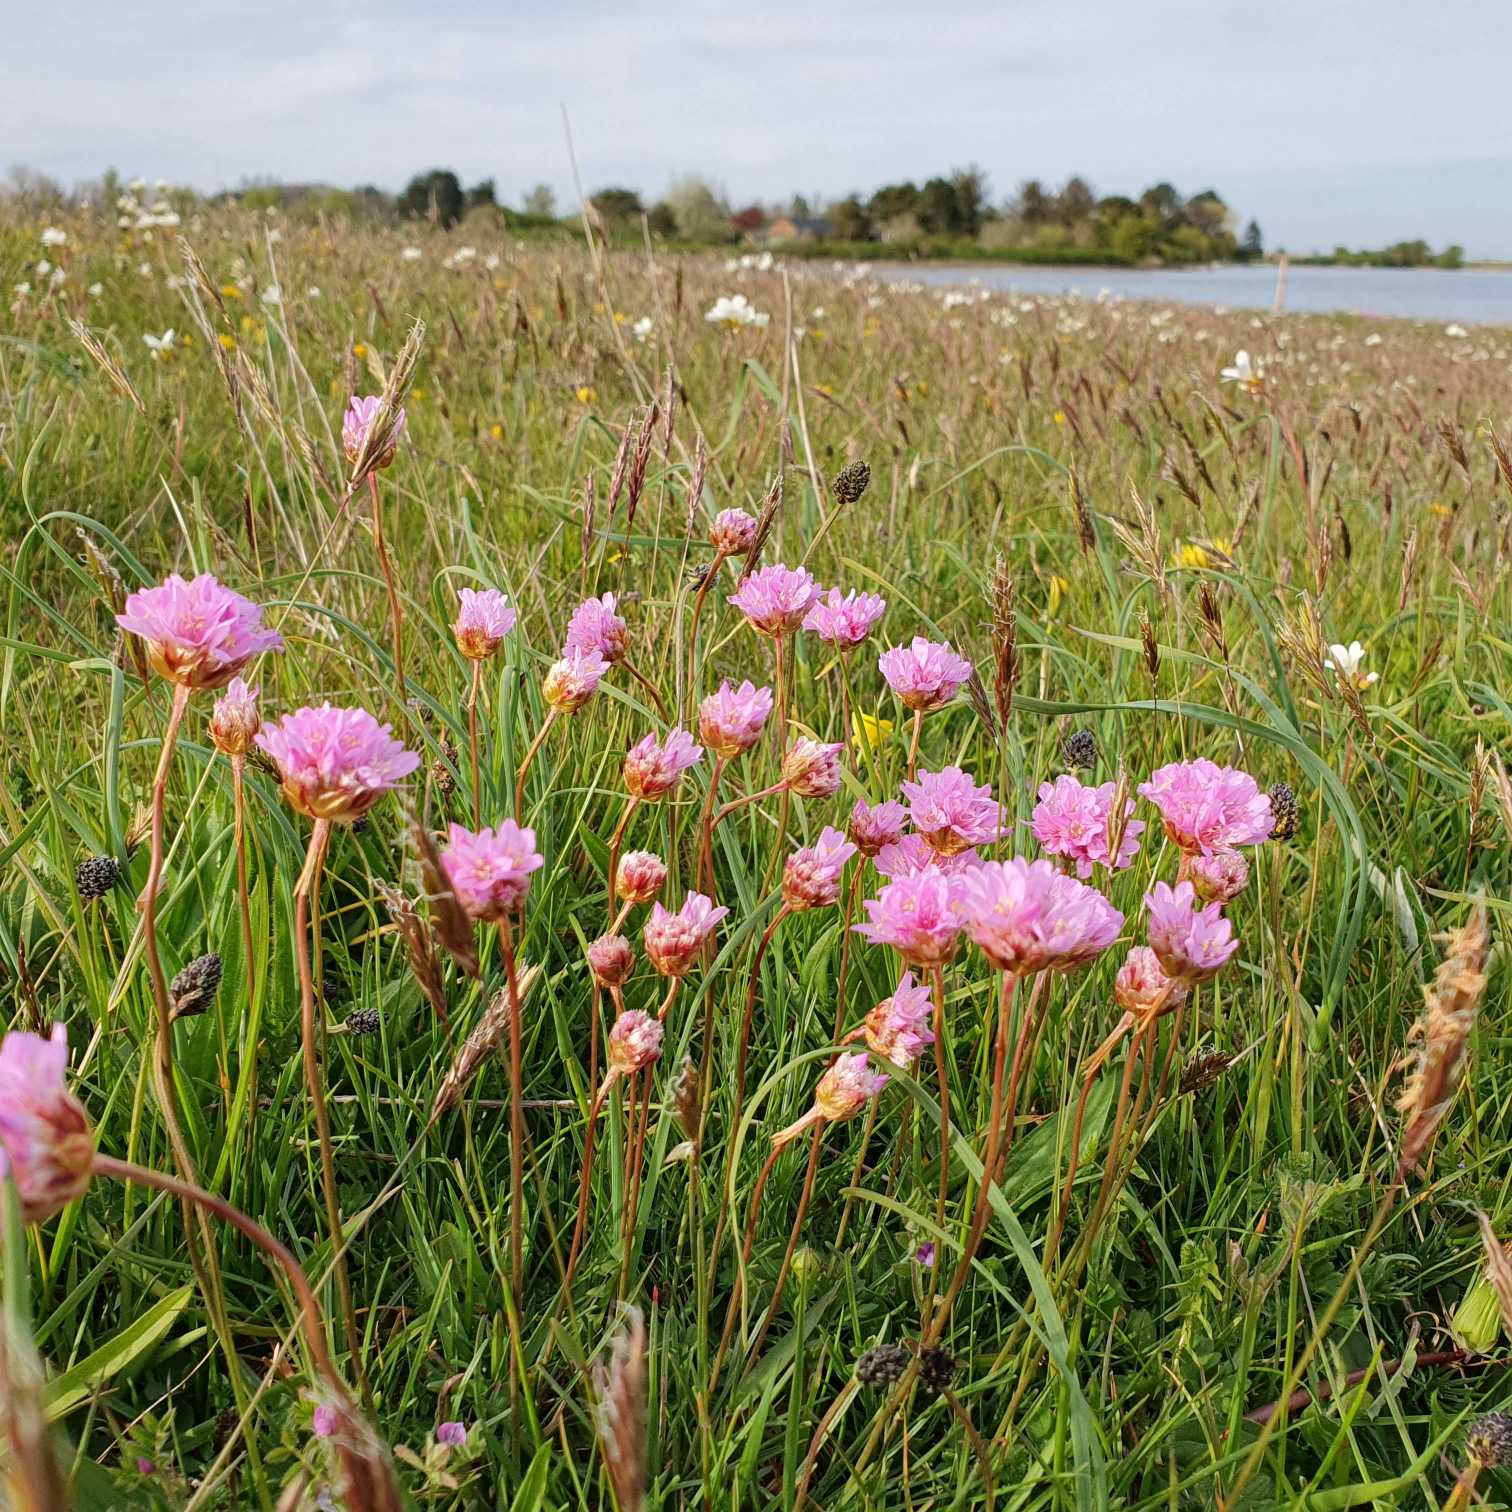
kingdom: Plantae
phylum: Tracheophyta
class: Magnoliopsida
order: Caryophyllales
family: Plumbaginaceae
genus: Armeria
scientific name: Armeria maritima
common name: Engelskgræs
